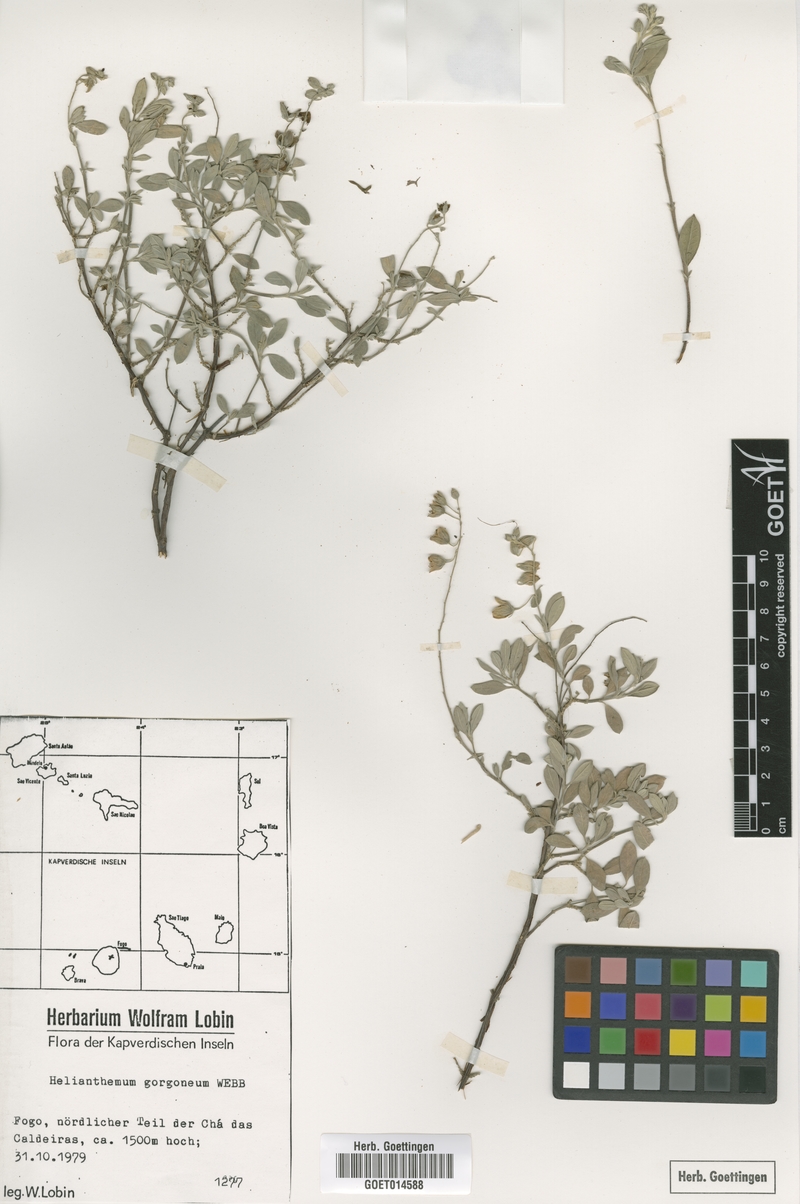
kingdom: Plantae
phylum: Tracheophyta
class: Magnoliopsida
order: Malvales
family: Cistaceae
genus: Helianthemum
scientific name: Helianthemum gorgoneum
